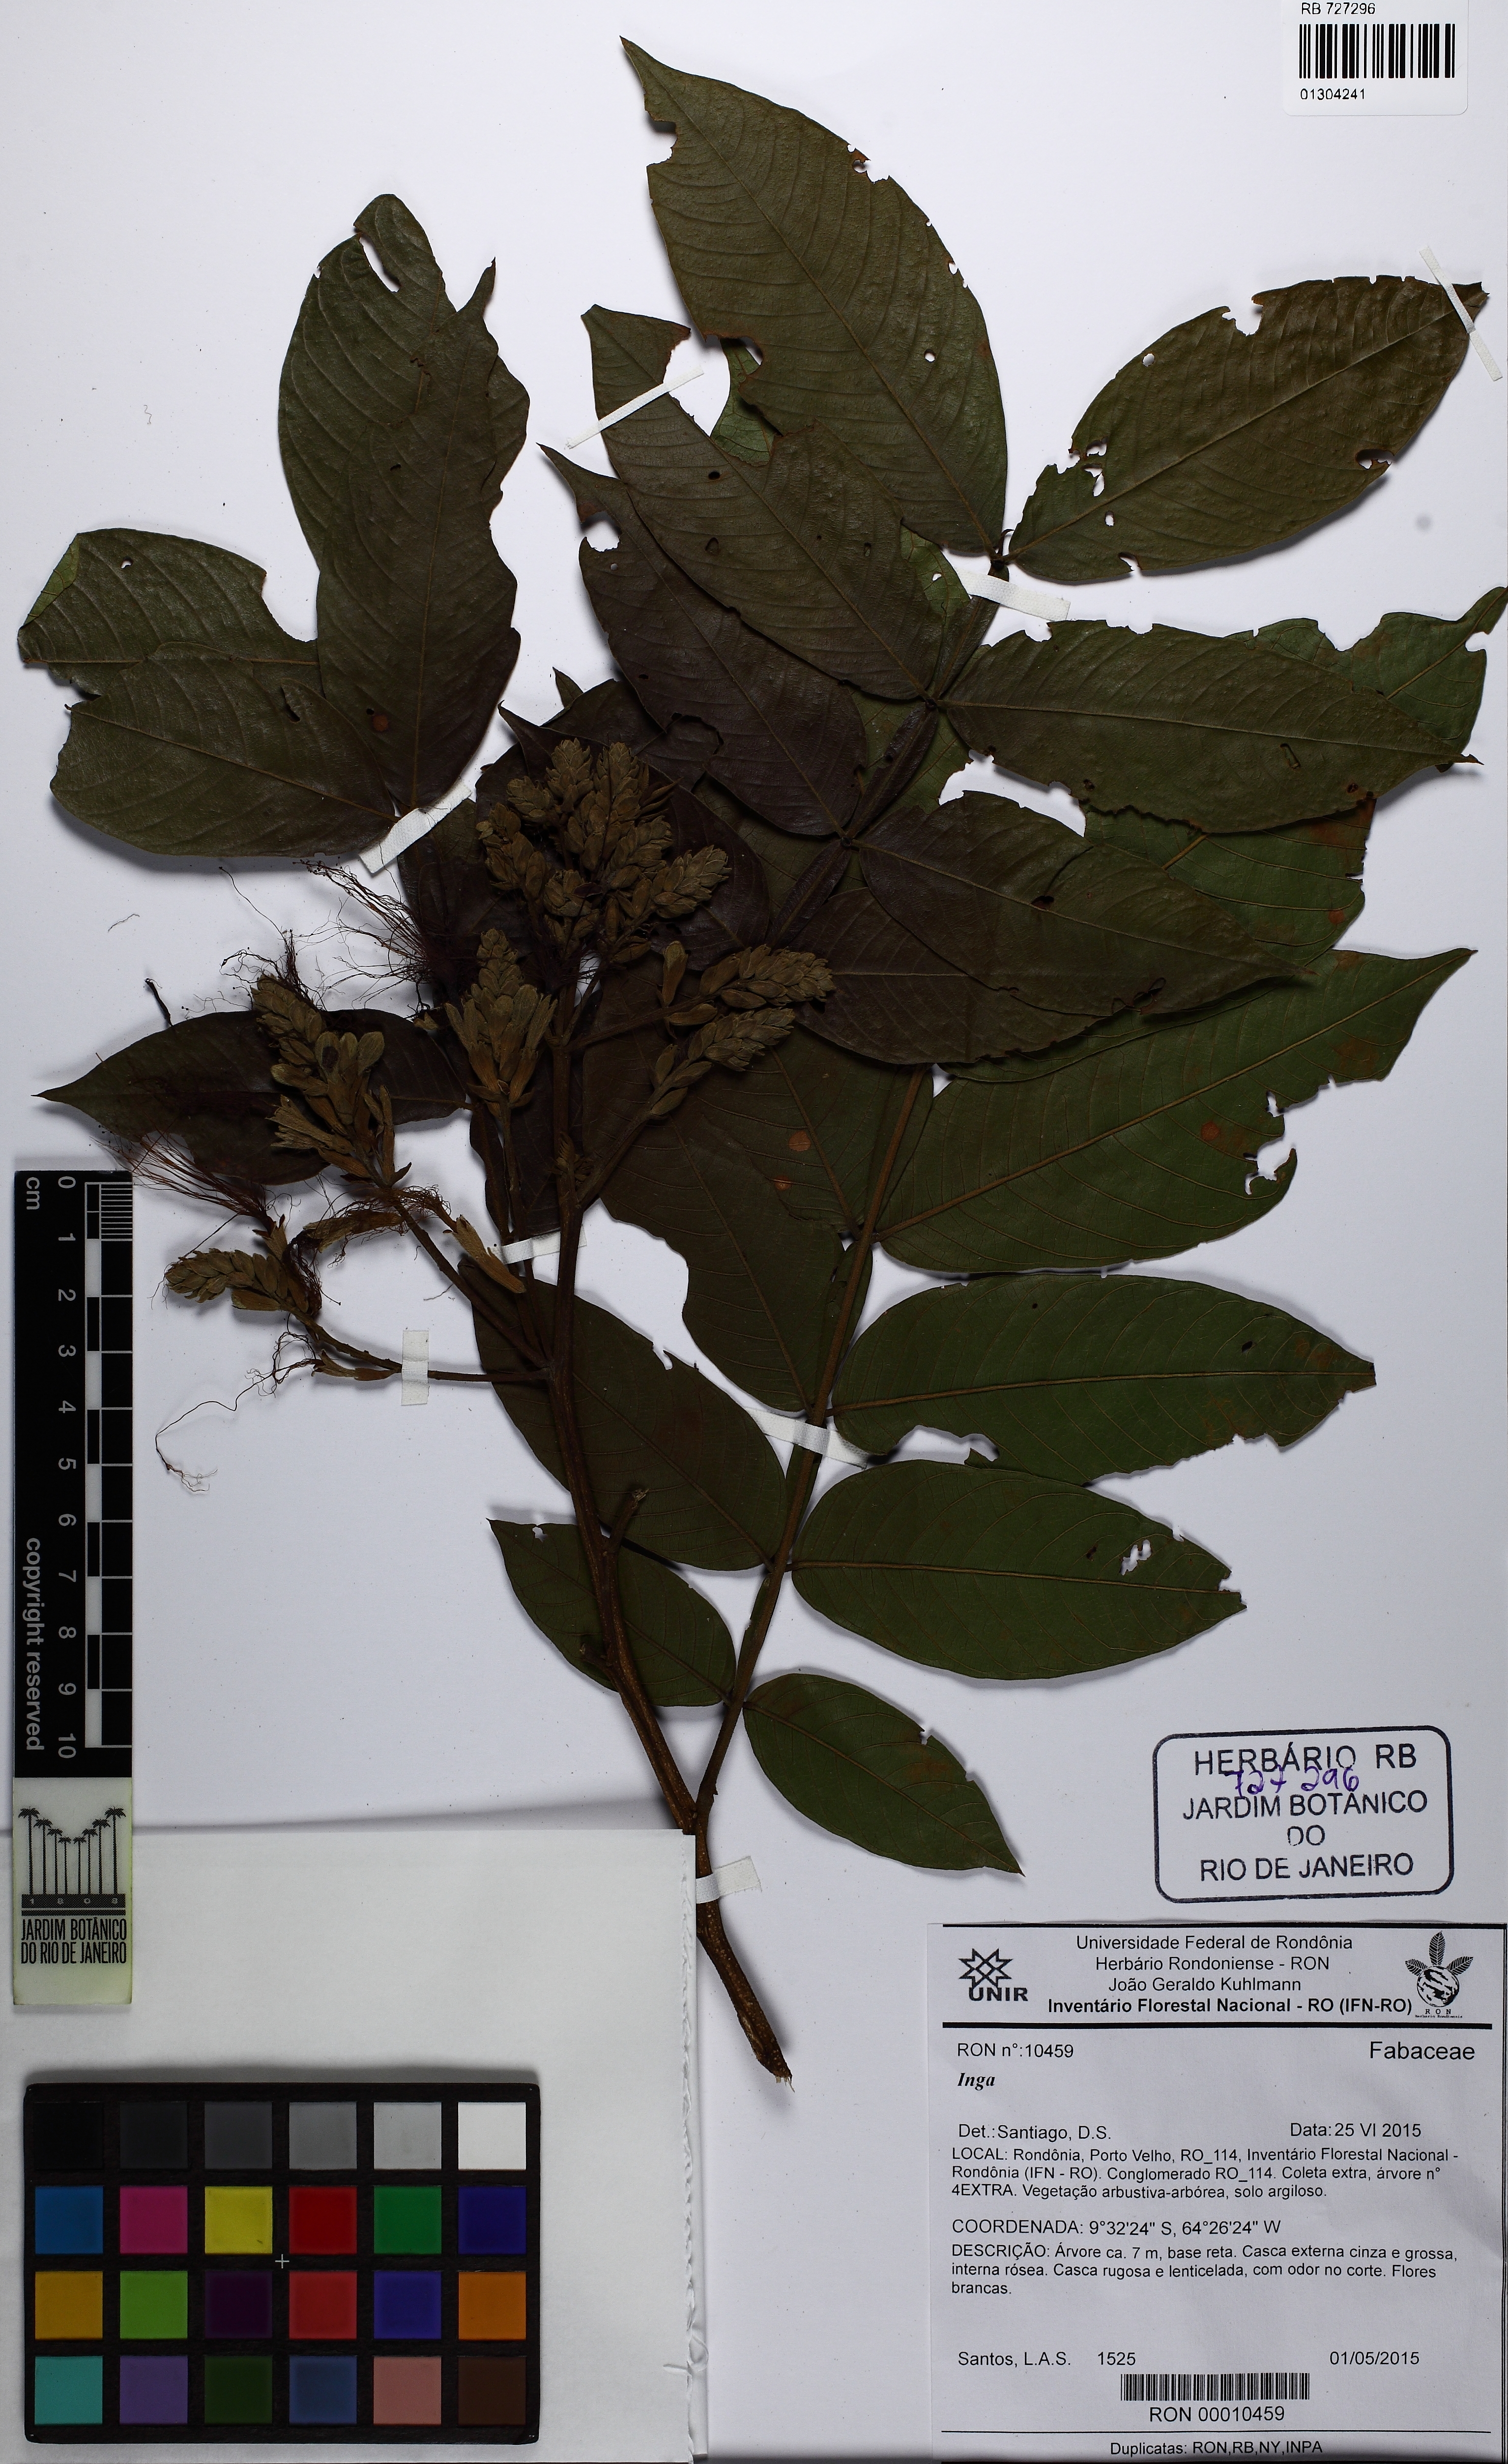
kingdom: Plantae
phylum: Tracheophyta
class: Magnoliopsida
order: Fabales
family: Fabaceae
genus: Inga
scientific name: Inga
